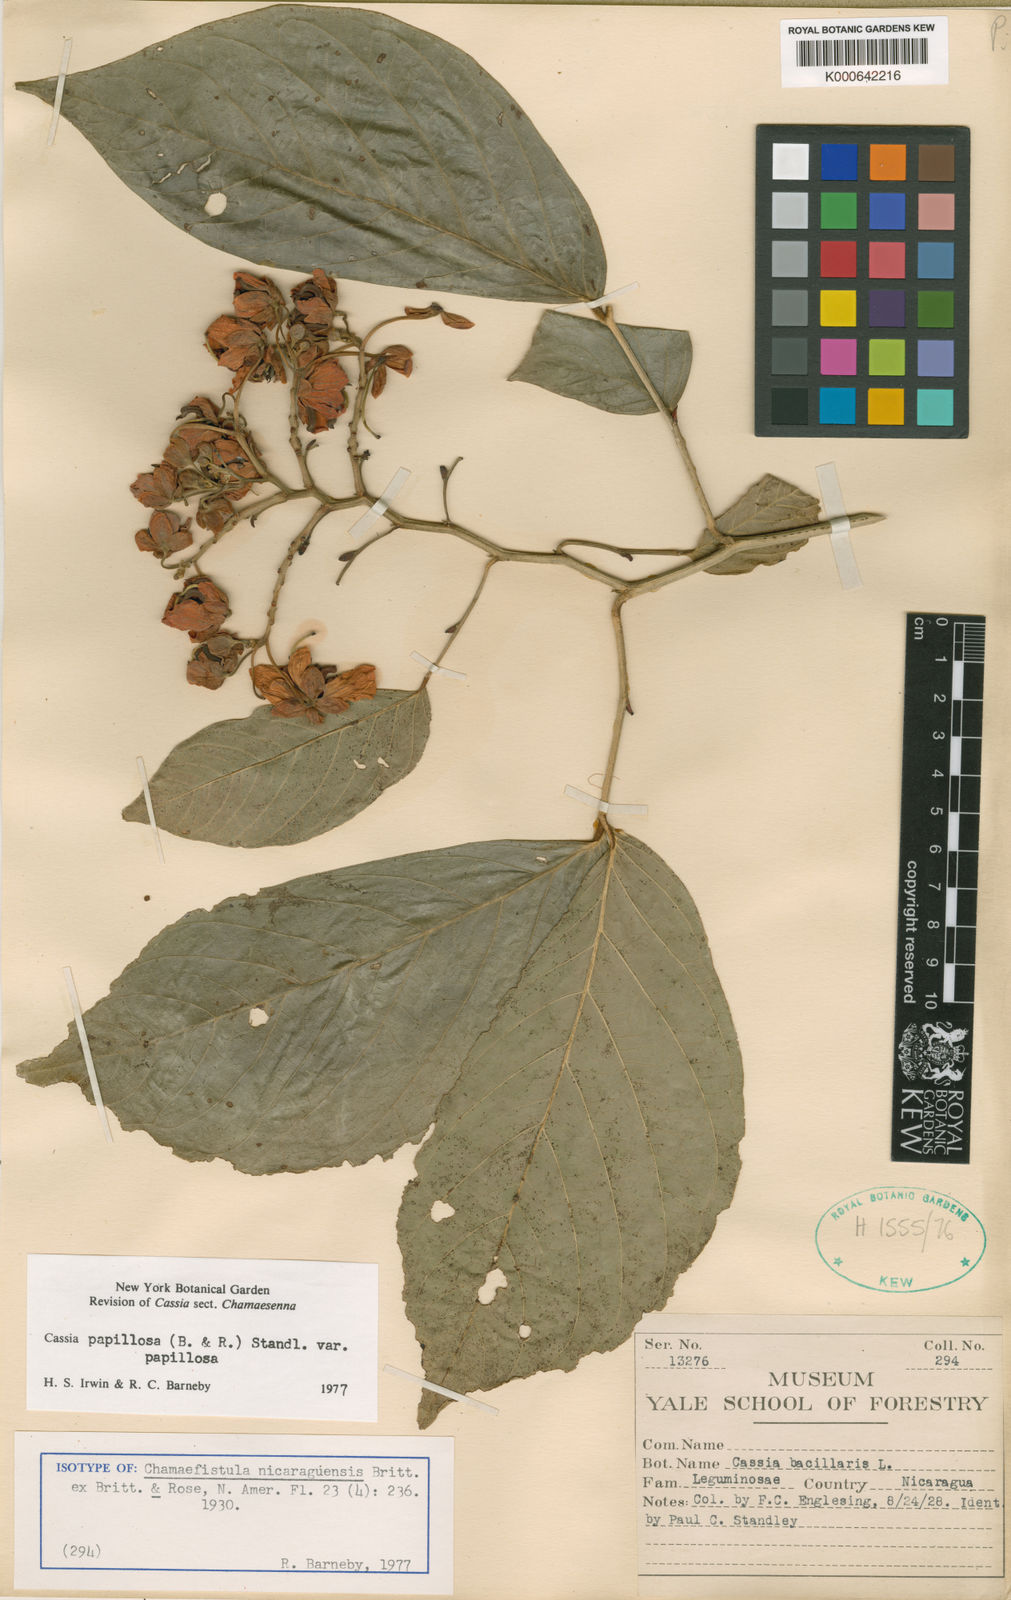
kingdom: Plantae
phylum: Tracheophyta
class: Magnoliopsida
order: Fabales
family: Fabaceae
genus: Senna
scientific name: Senna papillosa
